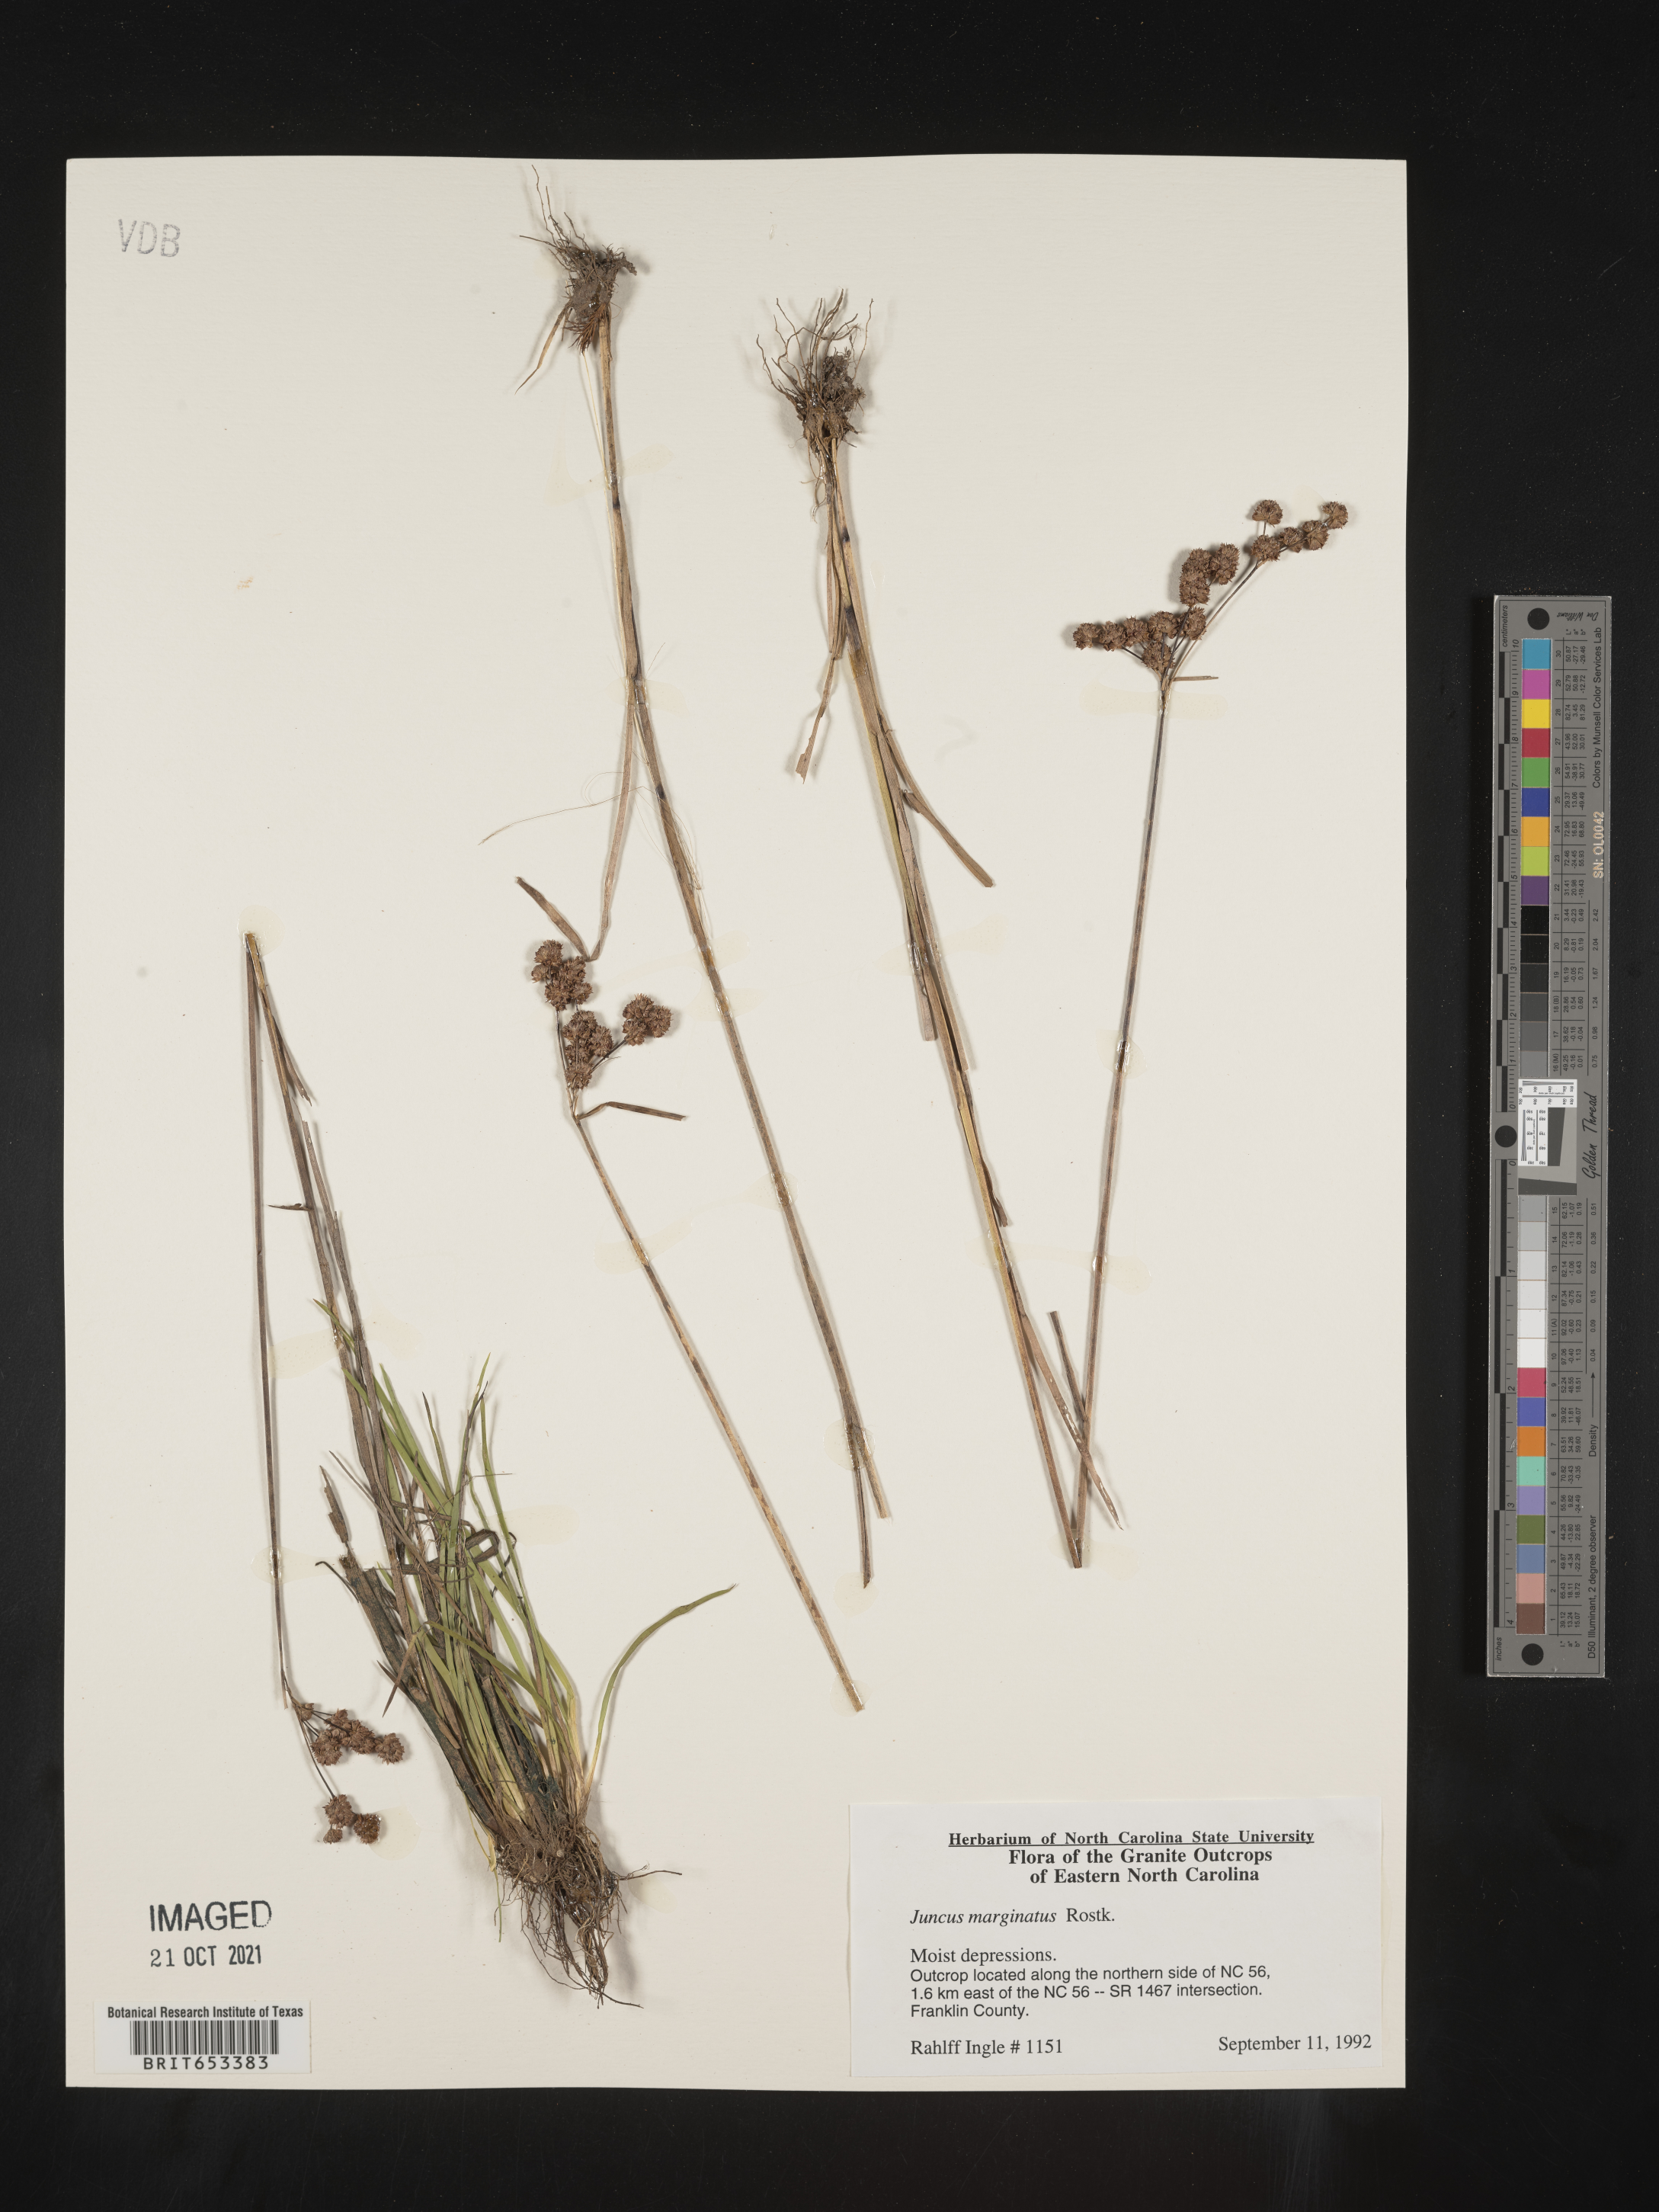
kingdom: Plantae
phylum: Tracheophyta
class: Liliopsida
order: Poales
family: Juncaceae
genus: Juncus
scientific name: Juncus marginatus
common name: Grass-leaf rush
